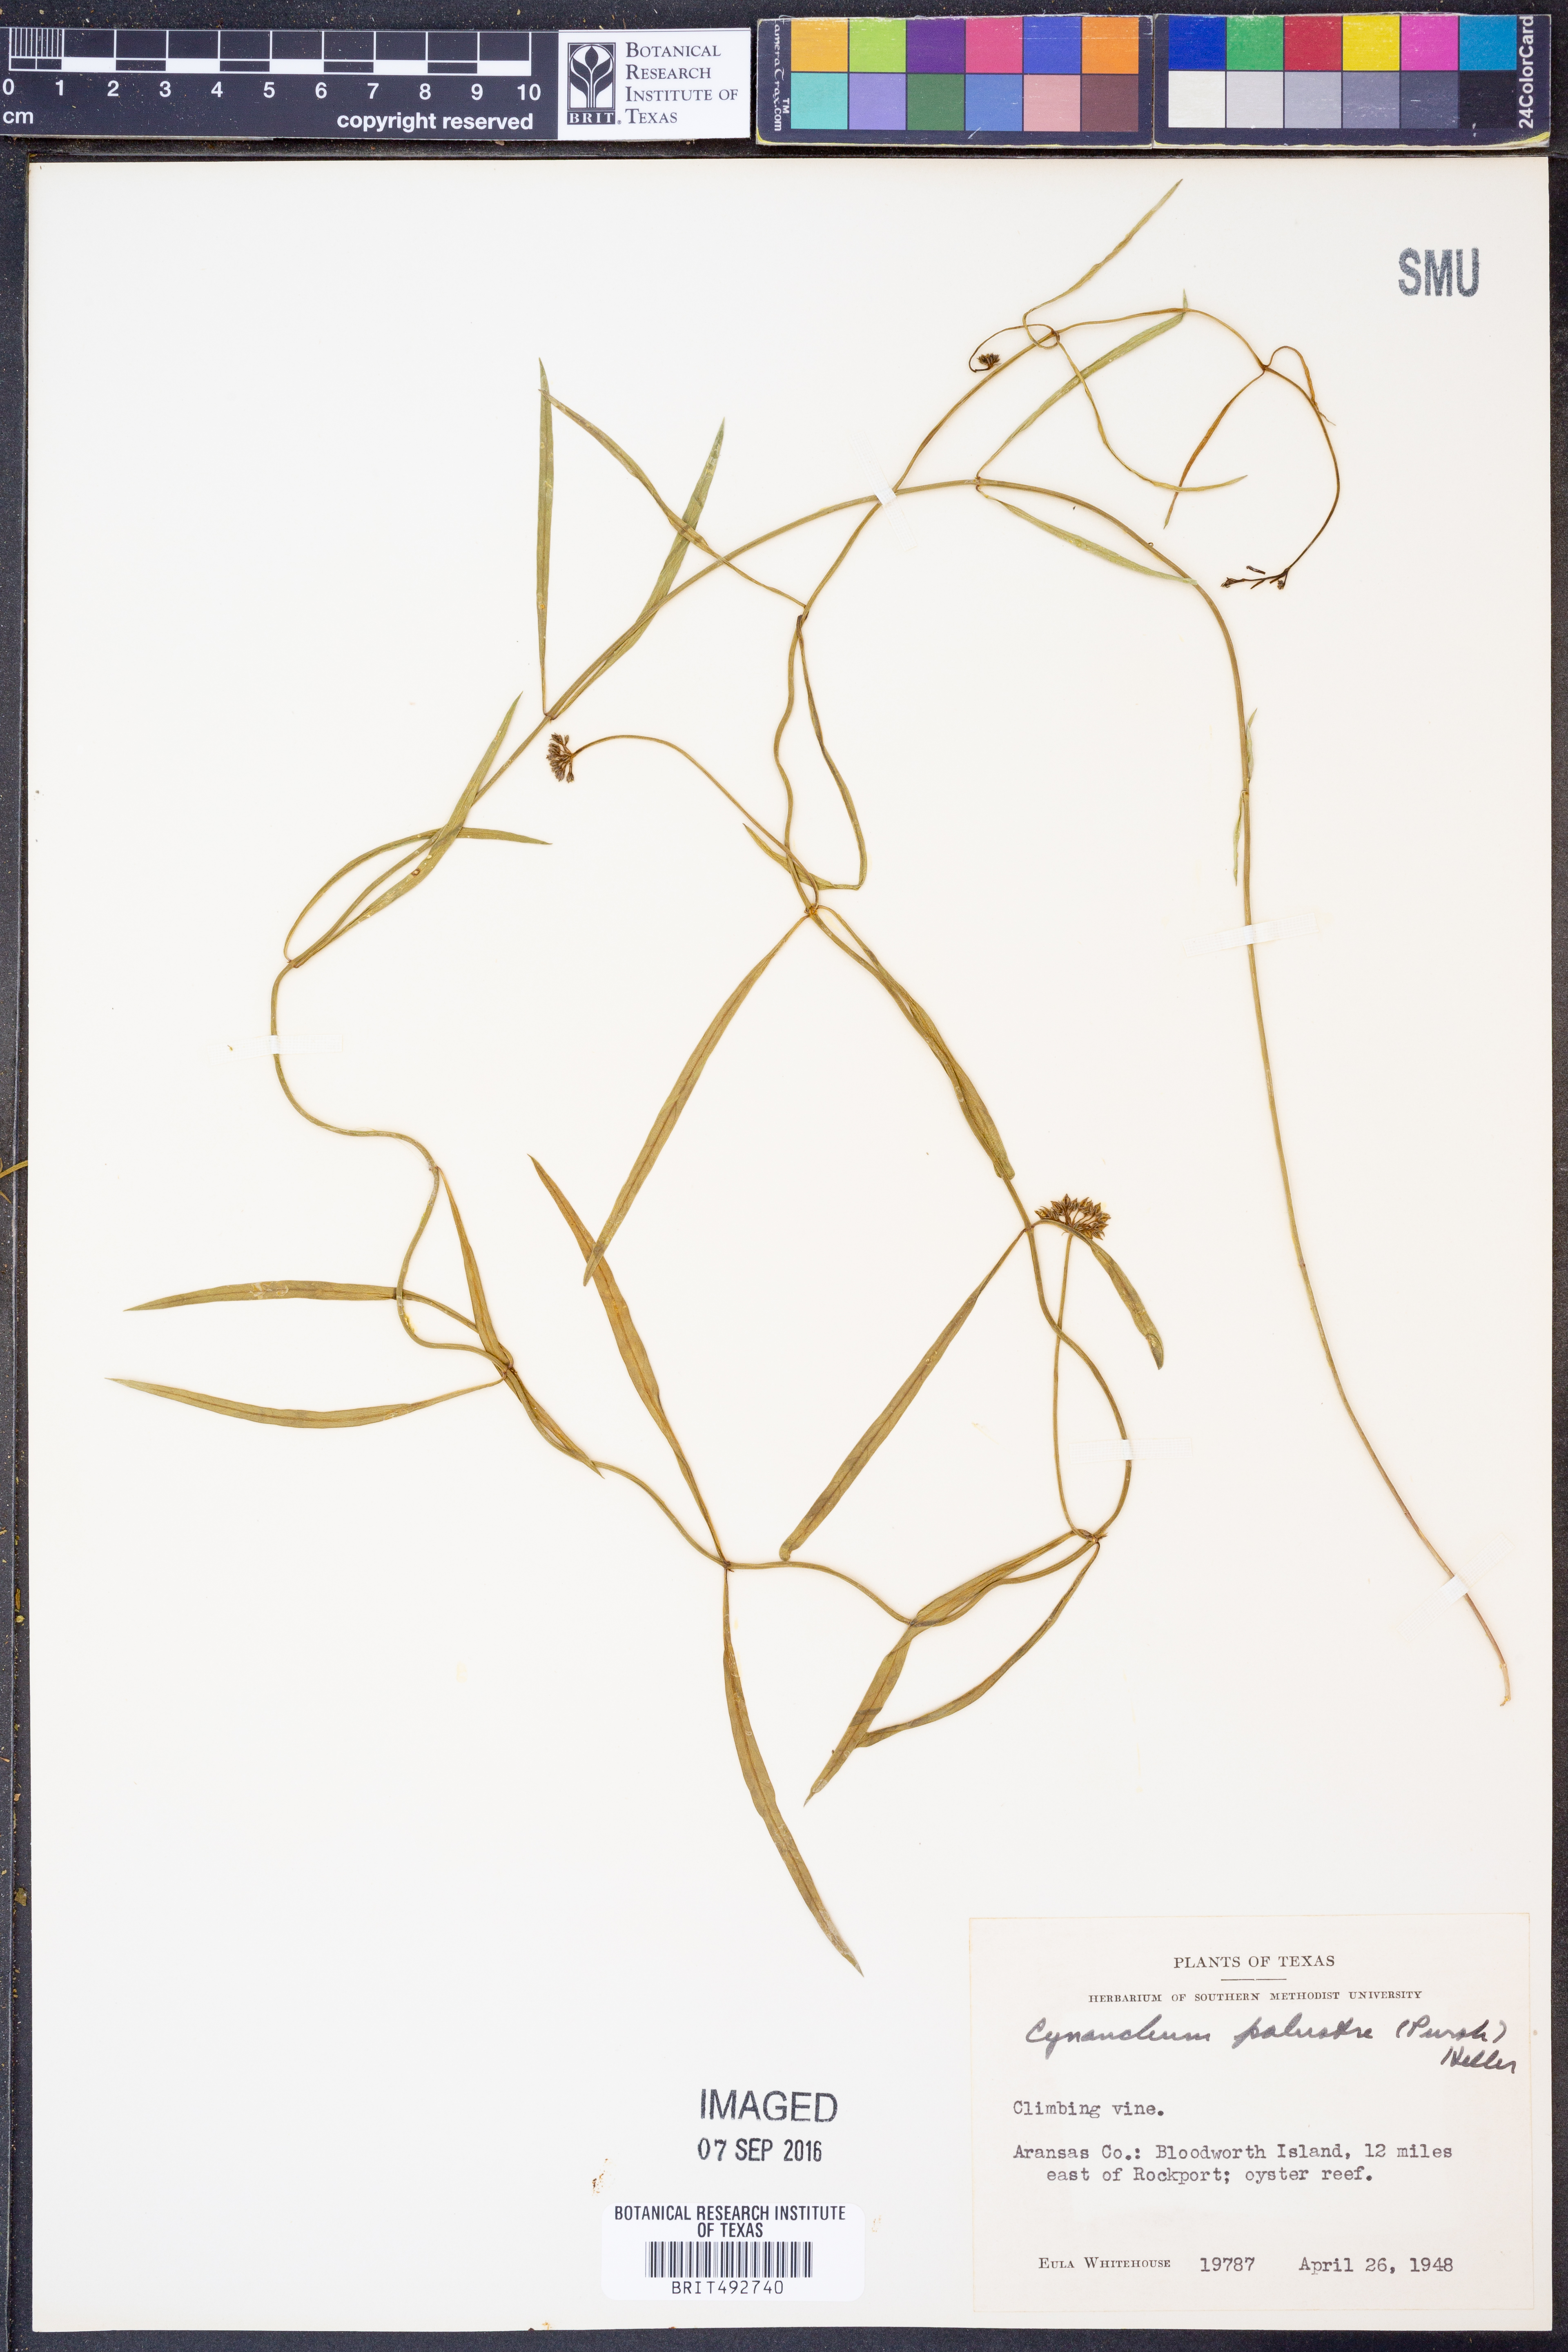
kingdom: Plantae
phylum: Tracheophyta
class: Magnoliopsida
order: Gentianales
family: Apocynaceae
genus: Pattalias
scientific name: Pattalias palustris
